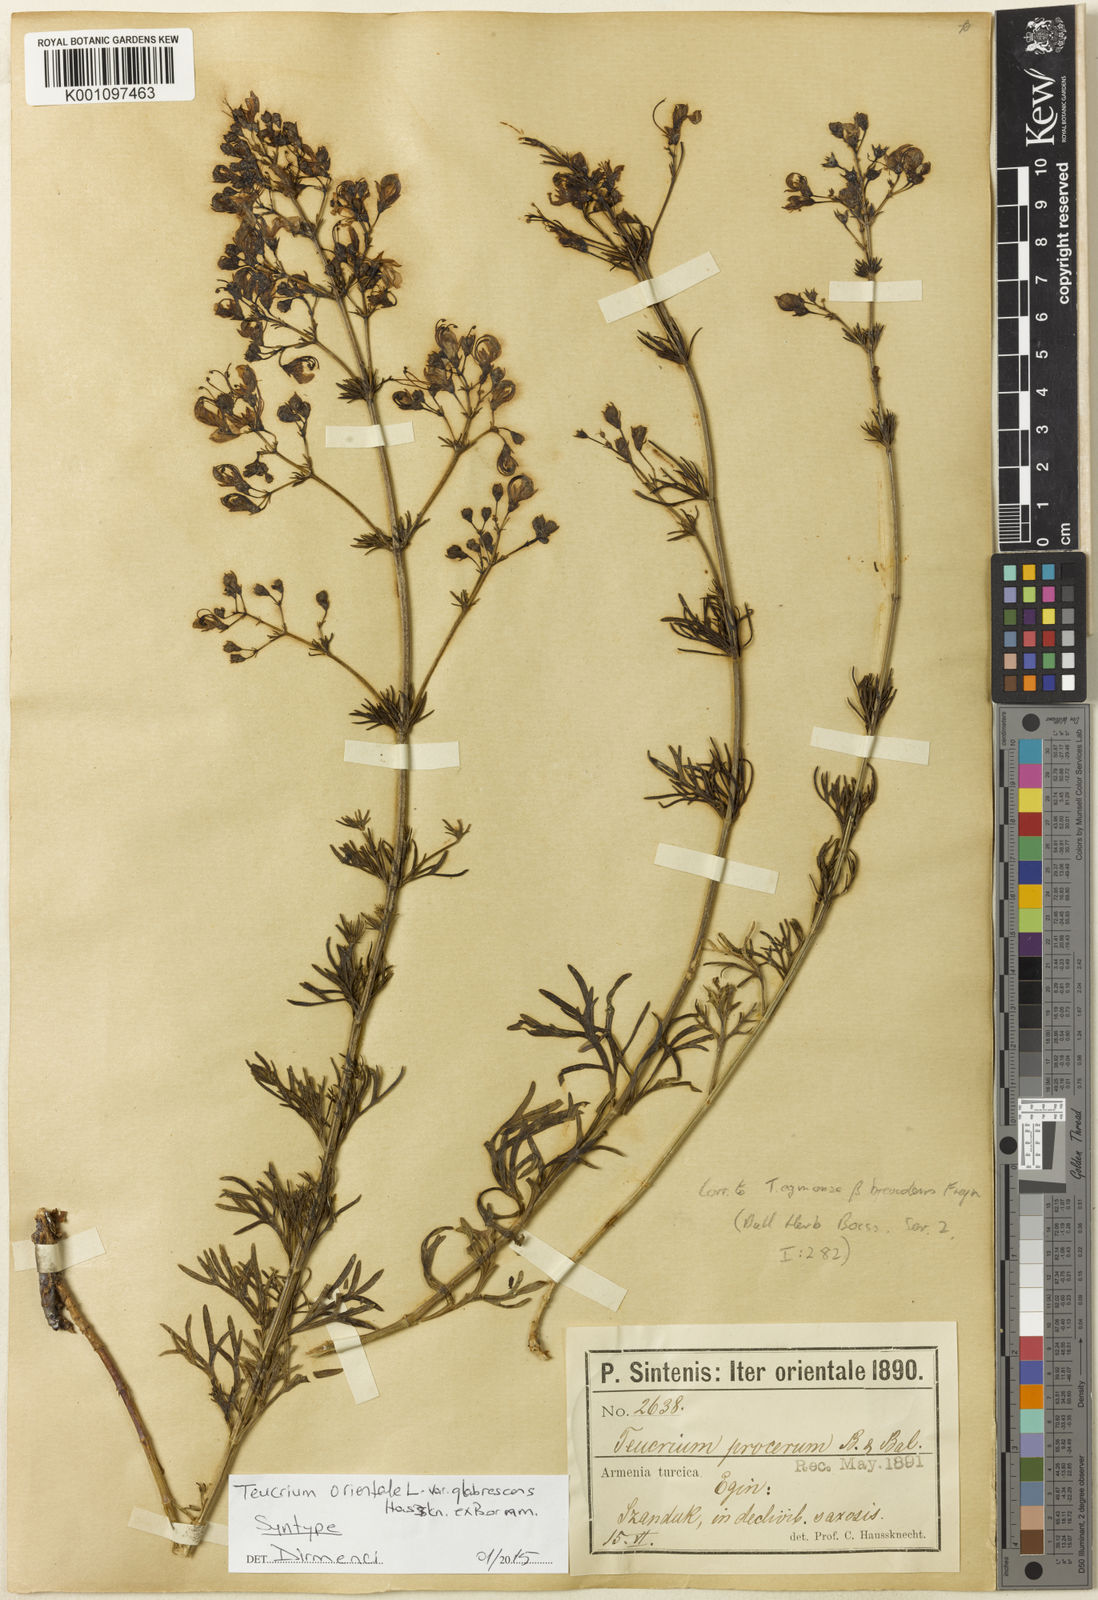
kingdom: Plantae
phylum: Tracheophyta
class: Magnoliopsida
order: Lamiales
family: Lamiaceae
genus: Teucrium
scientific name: Teucrium orientale
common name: Oriental germander
